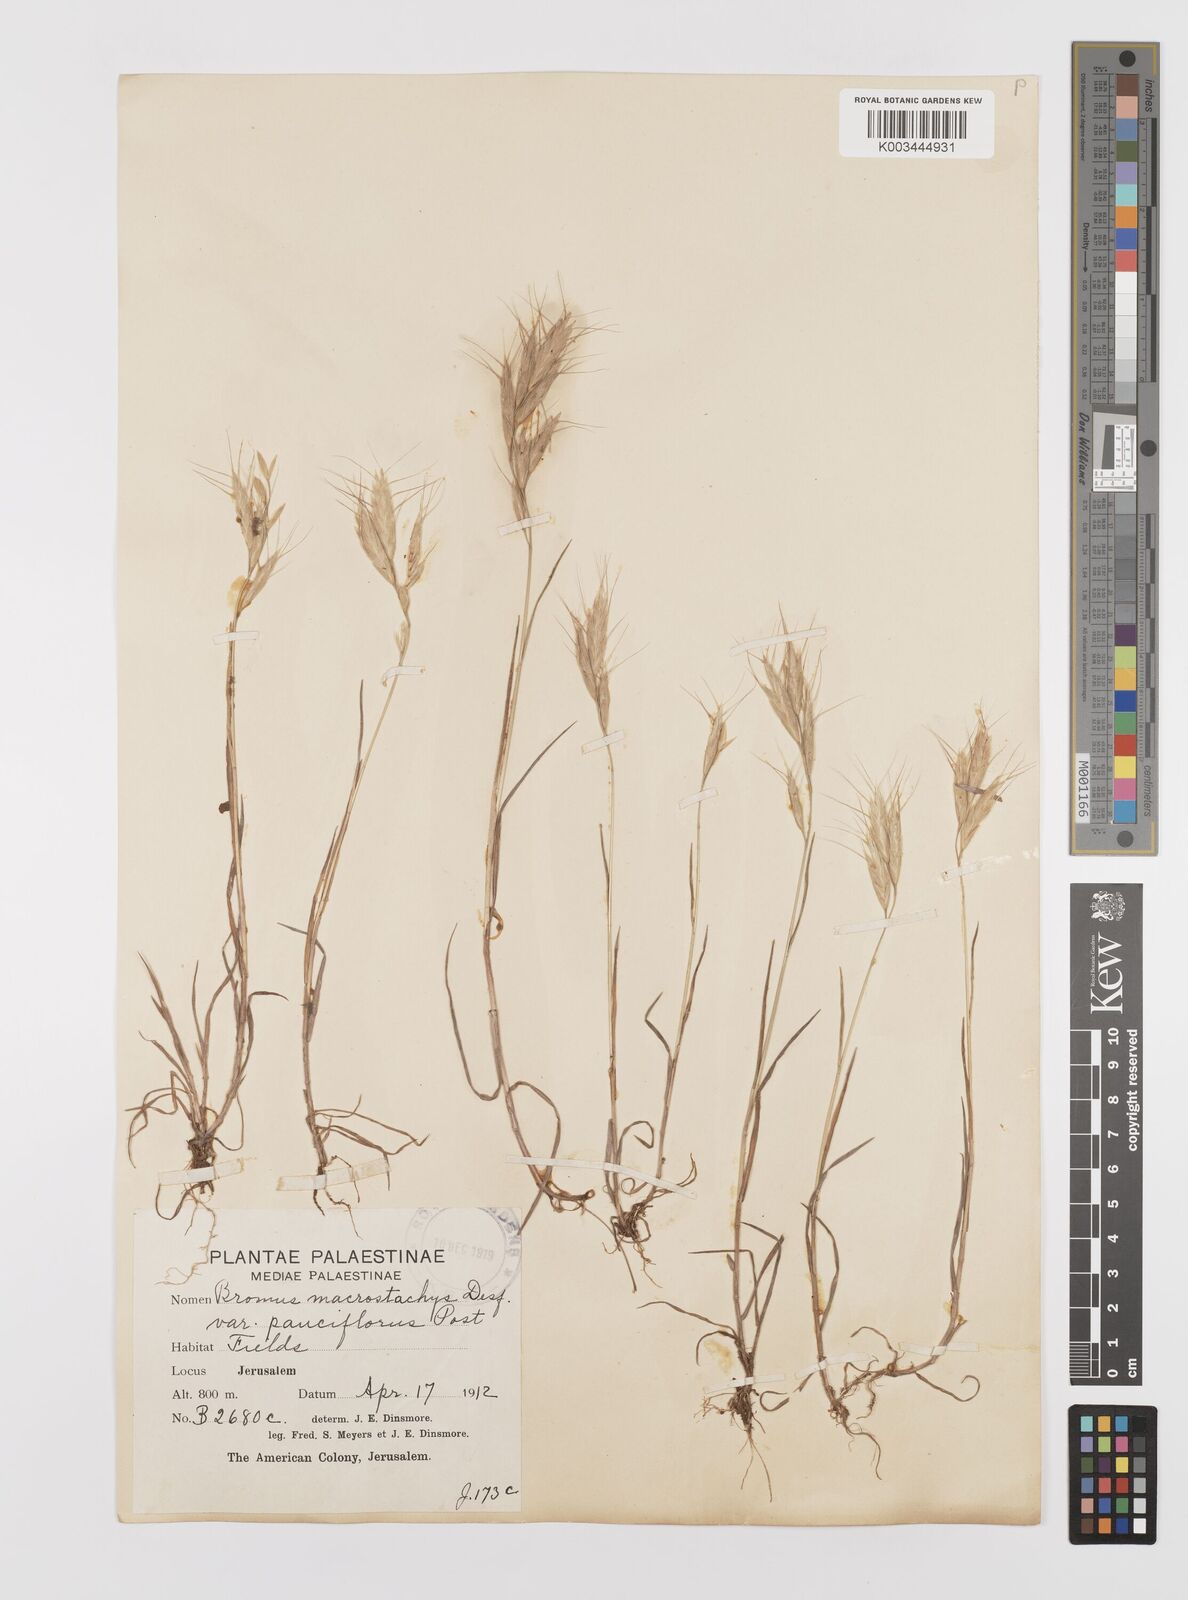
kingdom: Plantae
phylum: Tracheophyta
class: Liliopsida
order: Poales
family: Poaceae
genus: Bromus
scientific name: Bromus lanceolatus
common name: Mediterranean brome
